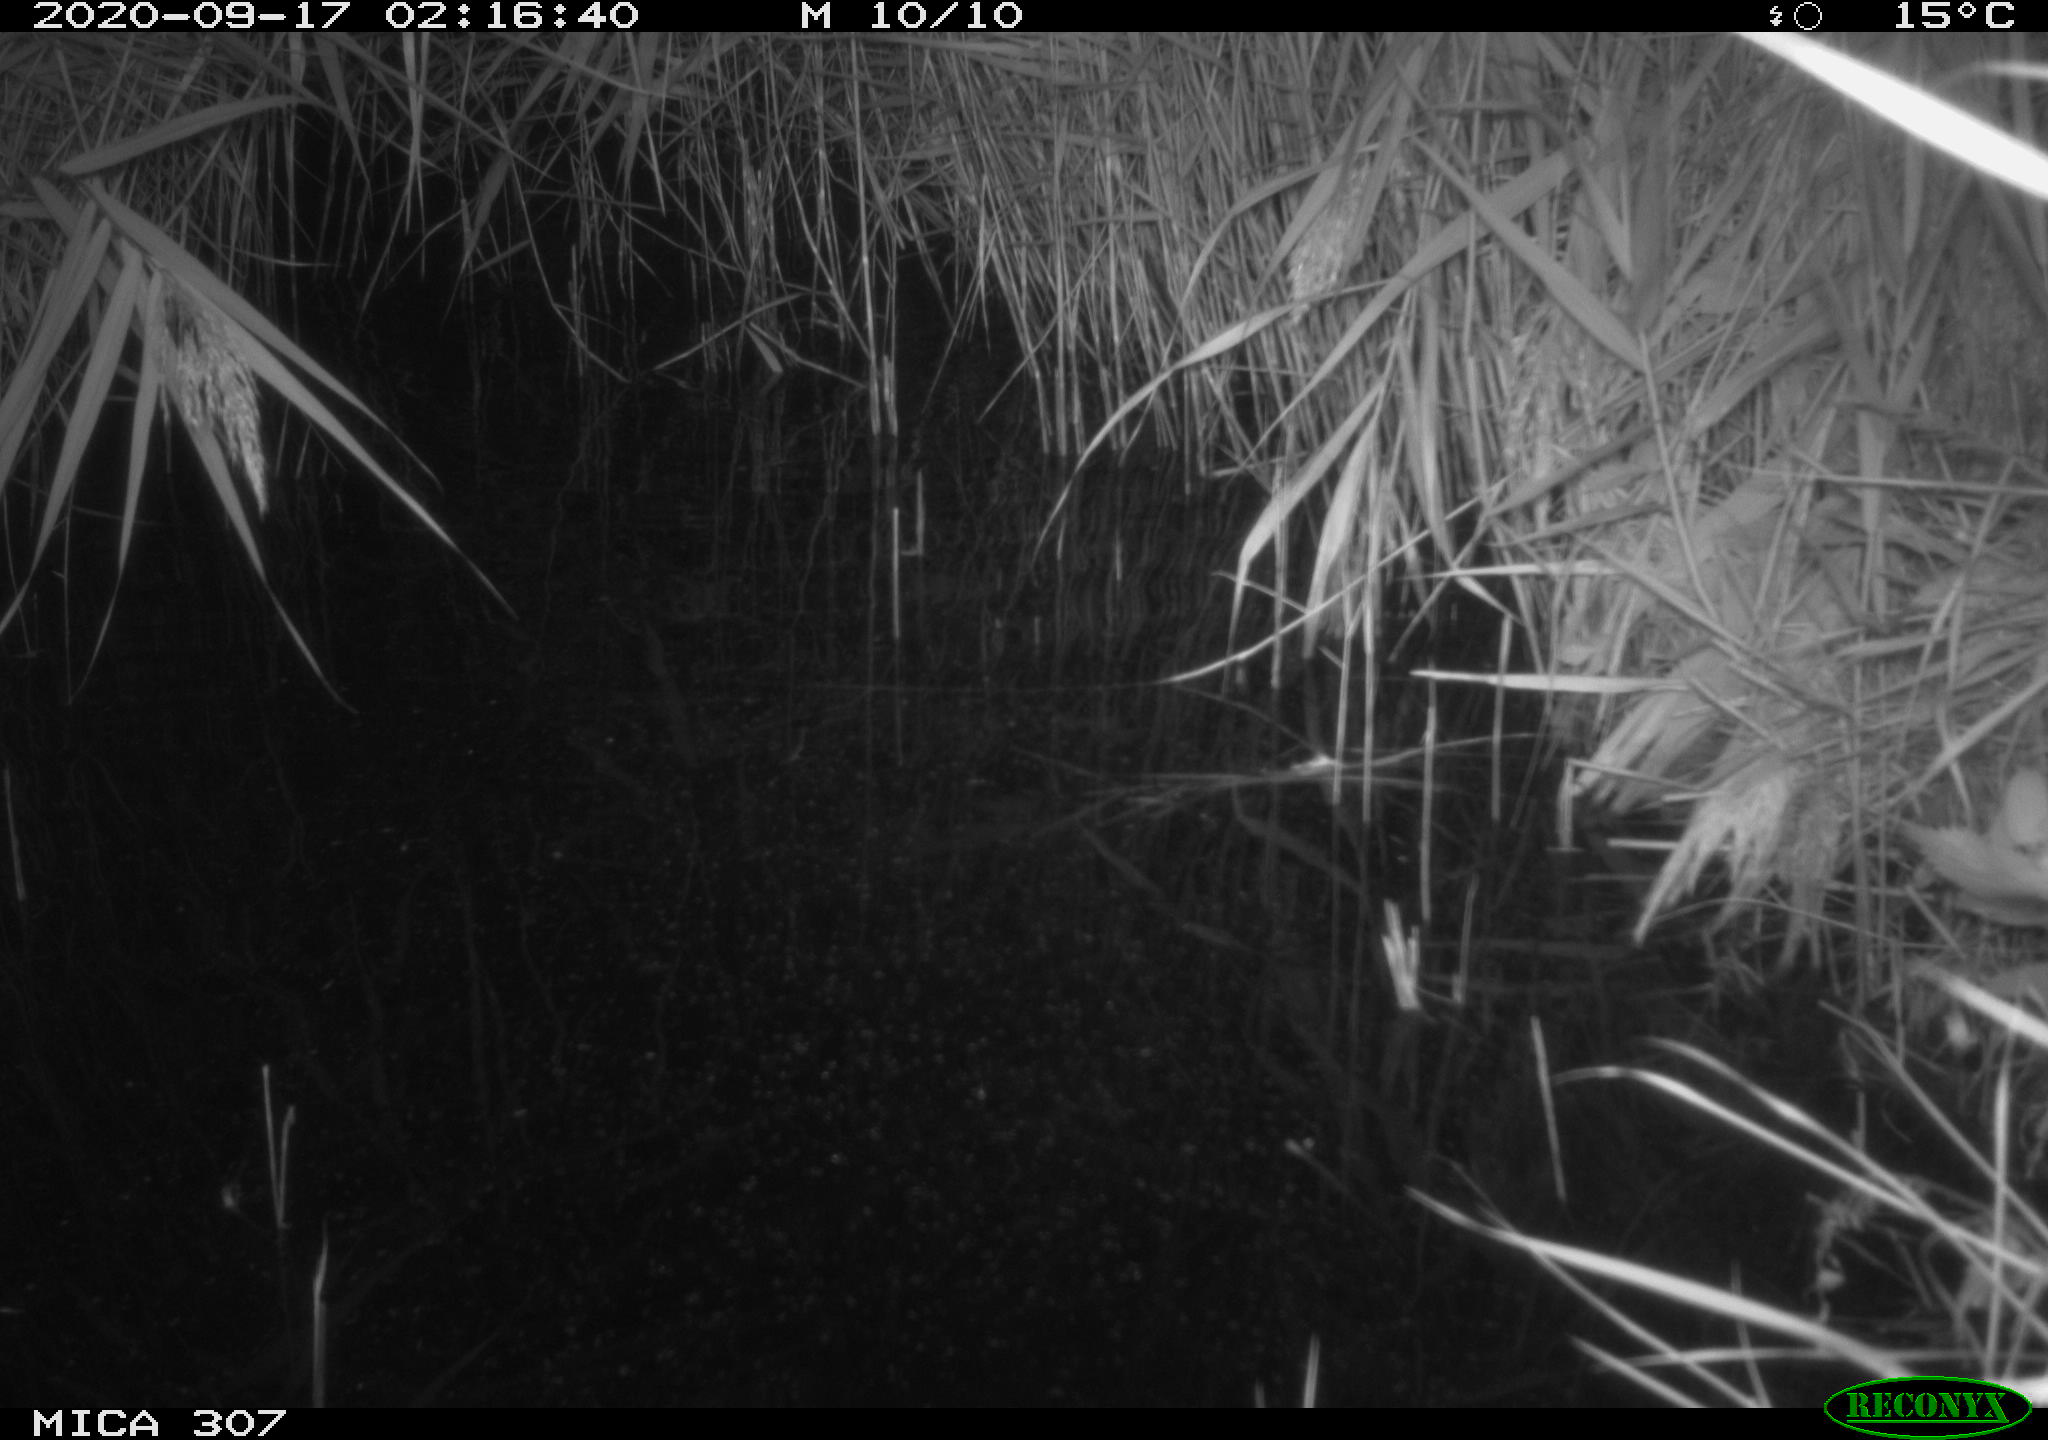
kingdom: Animalia
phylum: Chordata
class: Mammalia
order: Rodentia
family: Cricetidae
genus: Ondatra
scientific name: Ondatra zibethicus
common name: Muskrat
